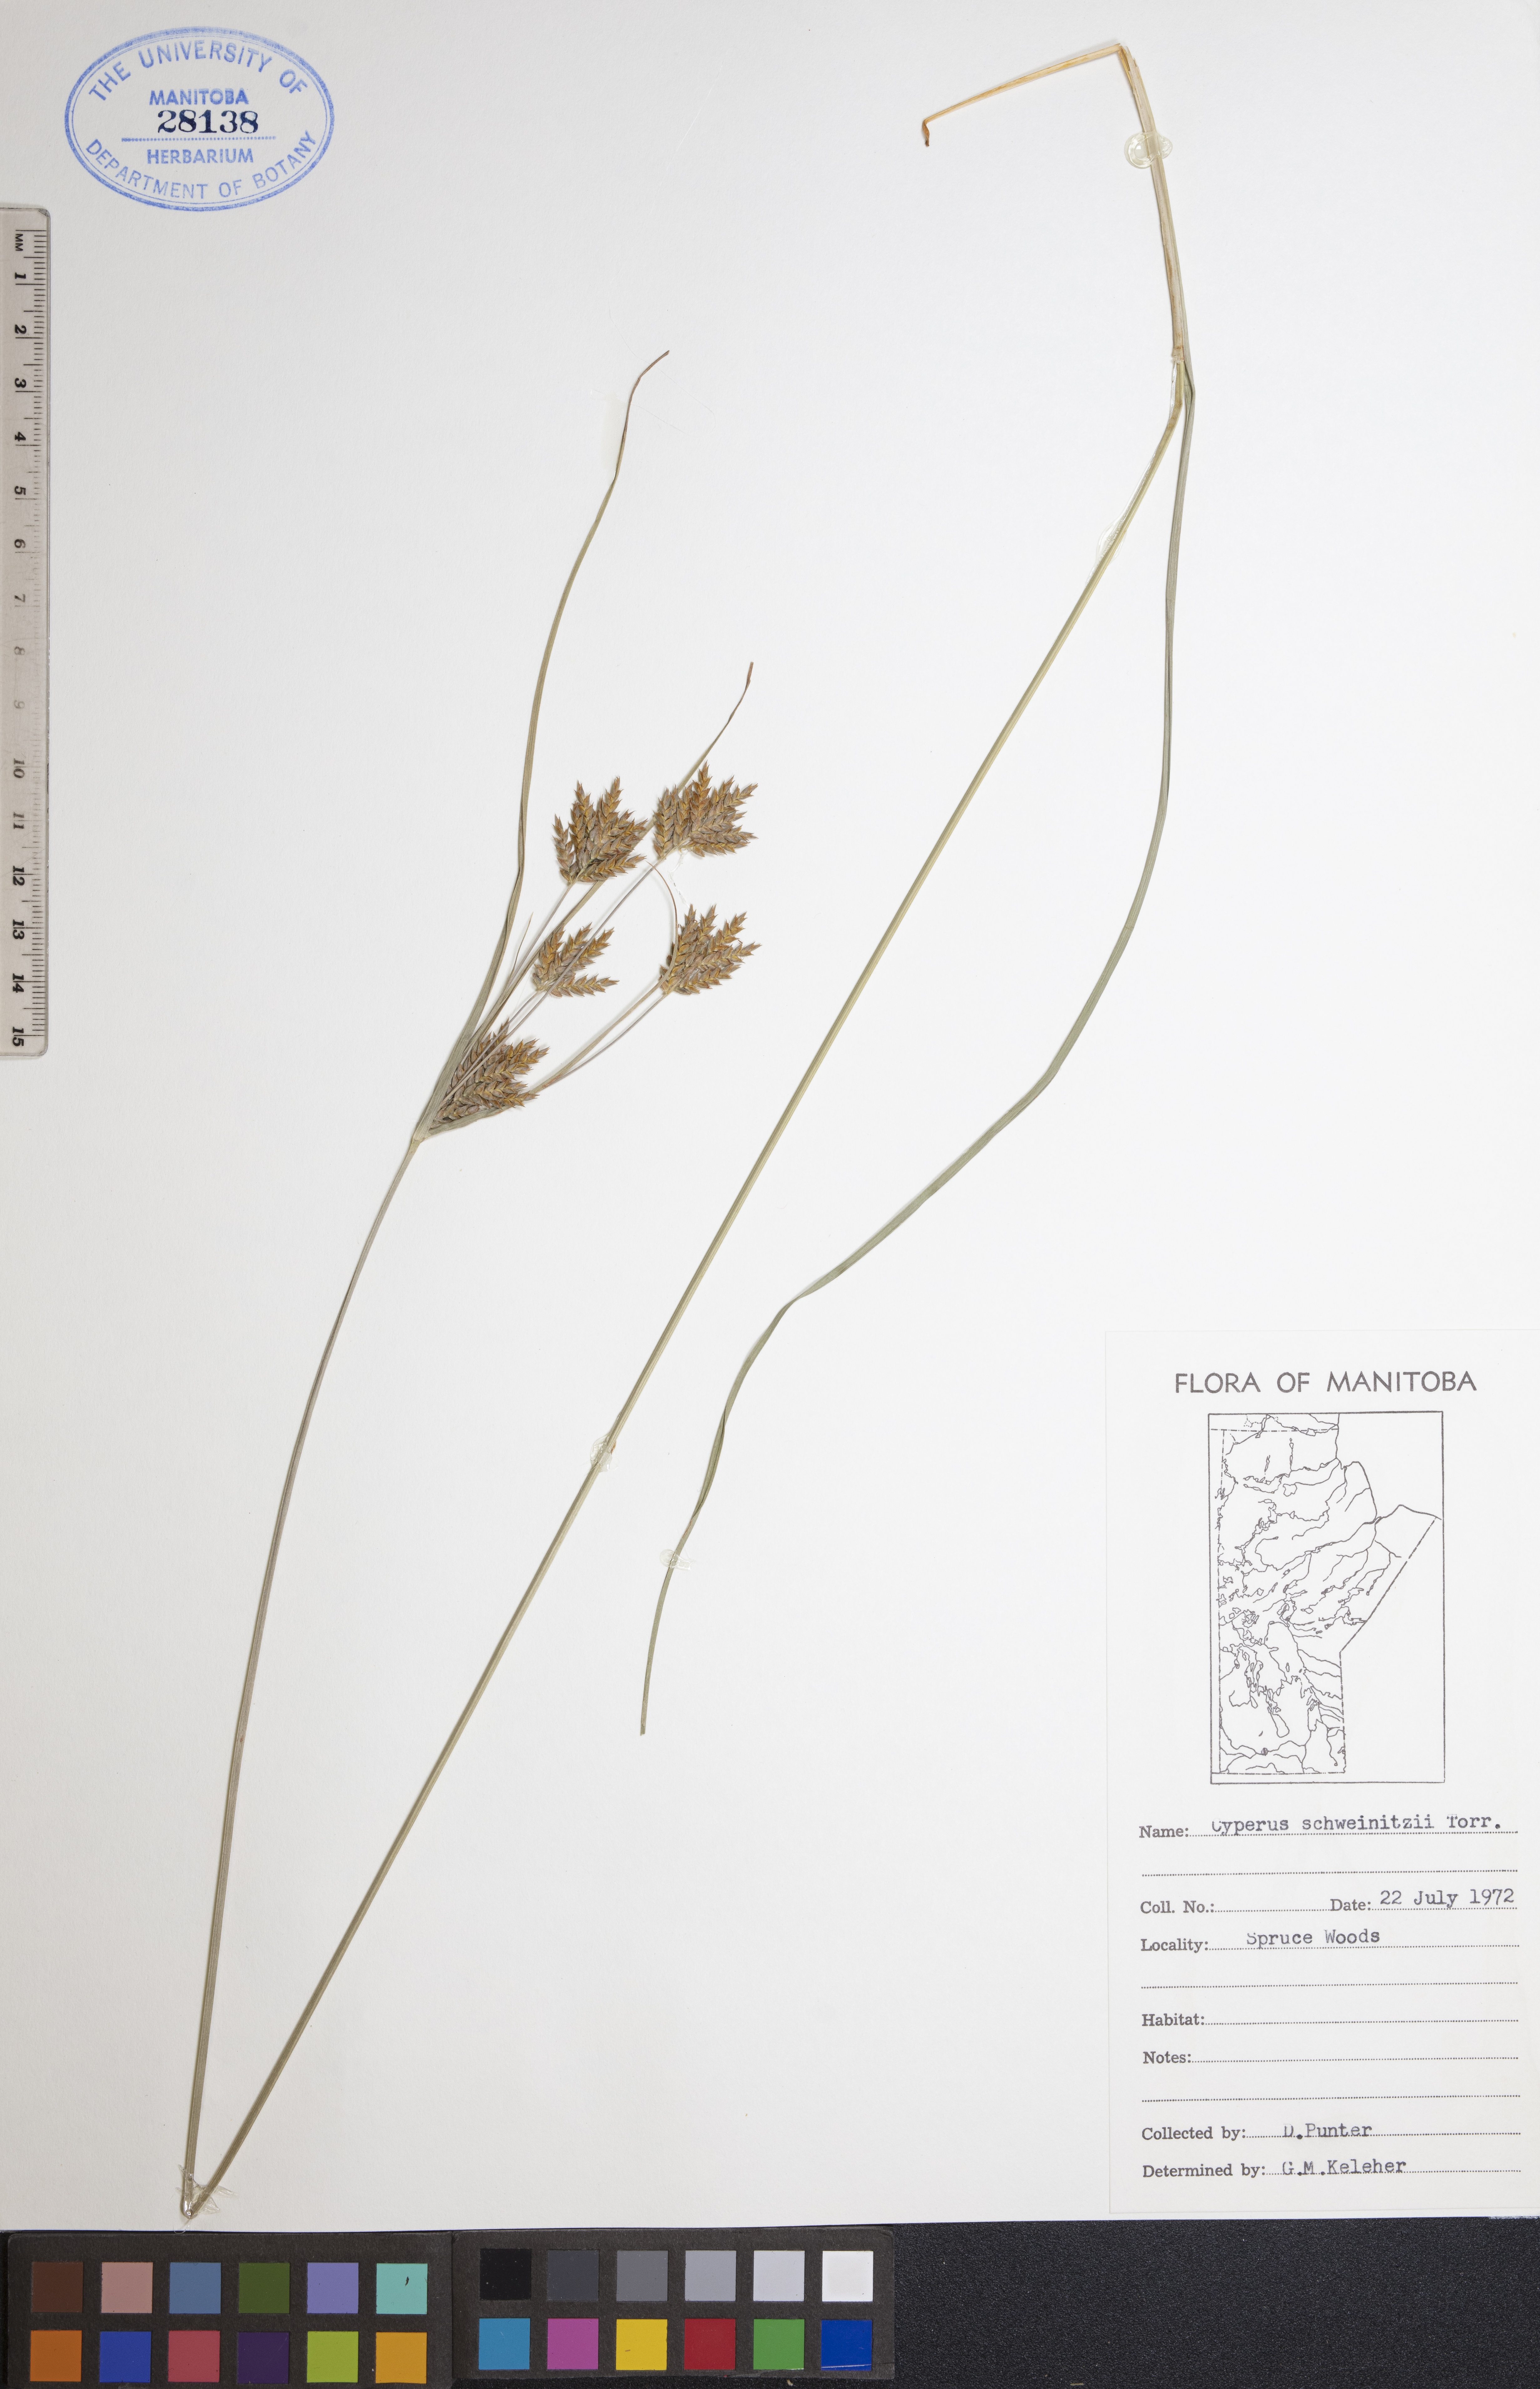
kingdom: Plantae
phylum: Tracheophyta
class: Liliopsida
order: Poales
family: Cyperaceae
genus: Cyperus
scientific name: Cyperus schweinitzii
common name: Schweinitz's cyperus
